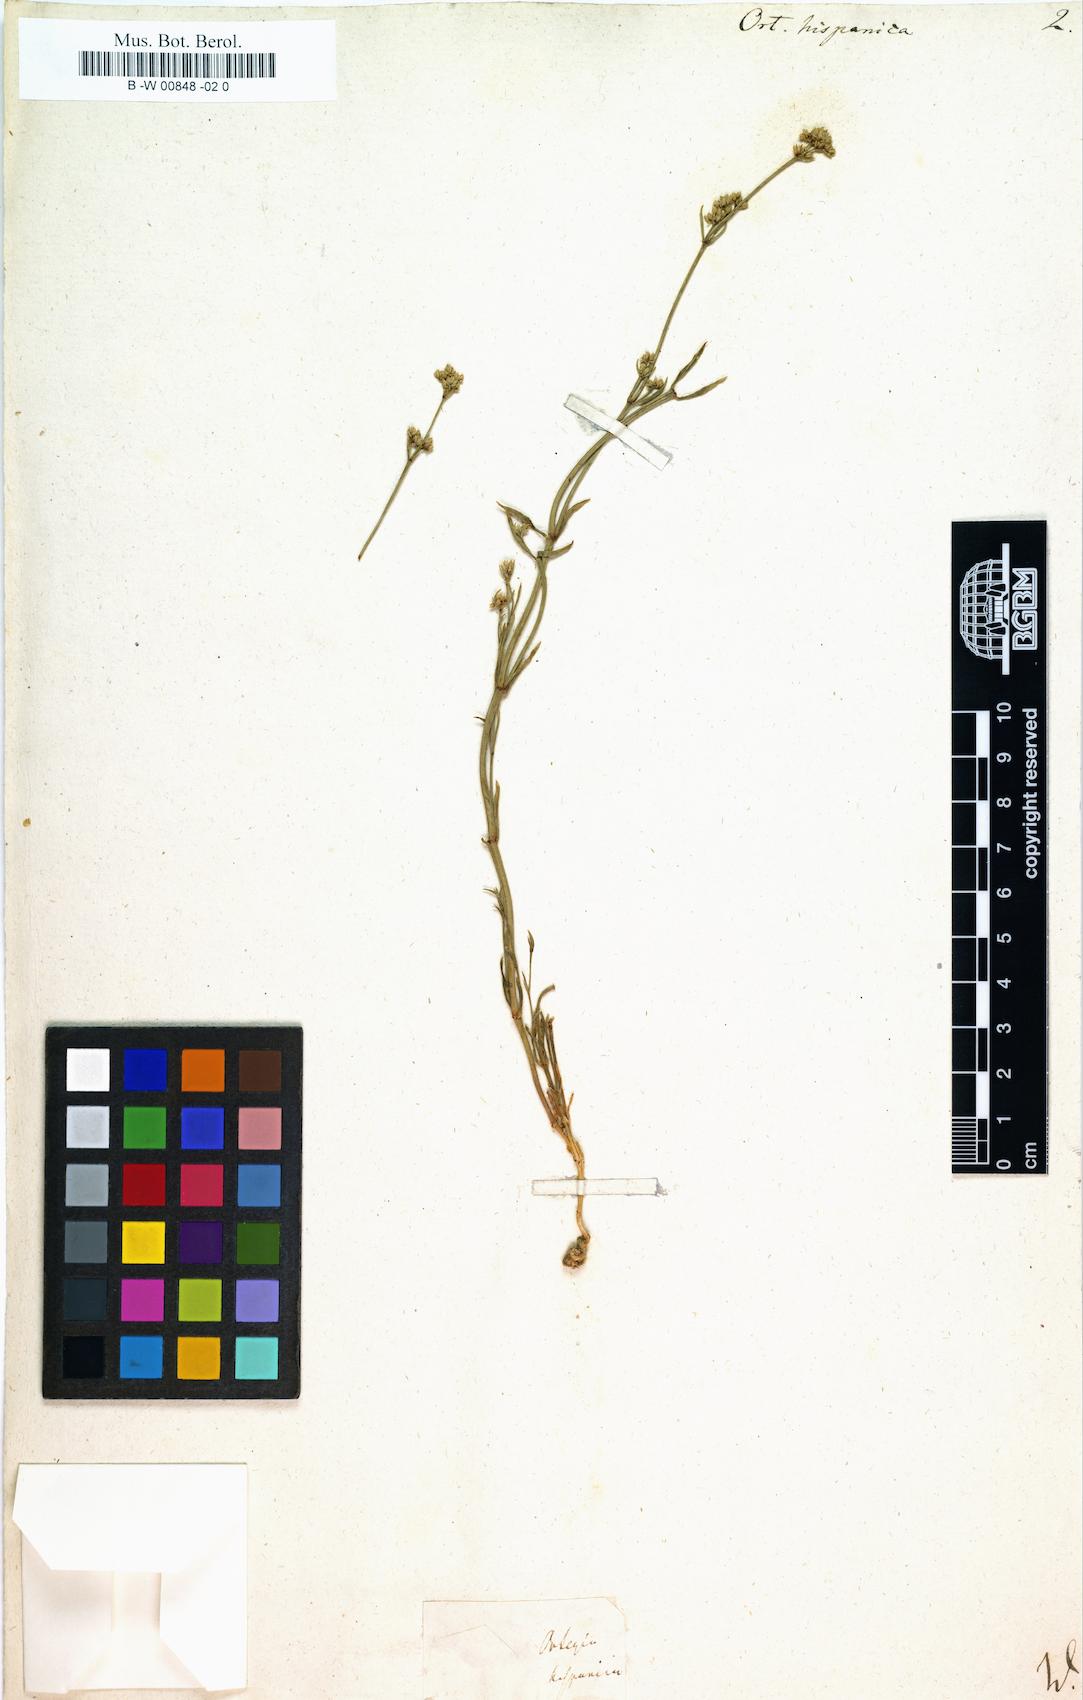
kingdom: Plantae
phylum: Tracheophyta
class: Magnoliopsida
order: Caryophyllales
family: Caryophyllaceae
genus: Ortegia
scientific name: Ortegia hispanica
